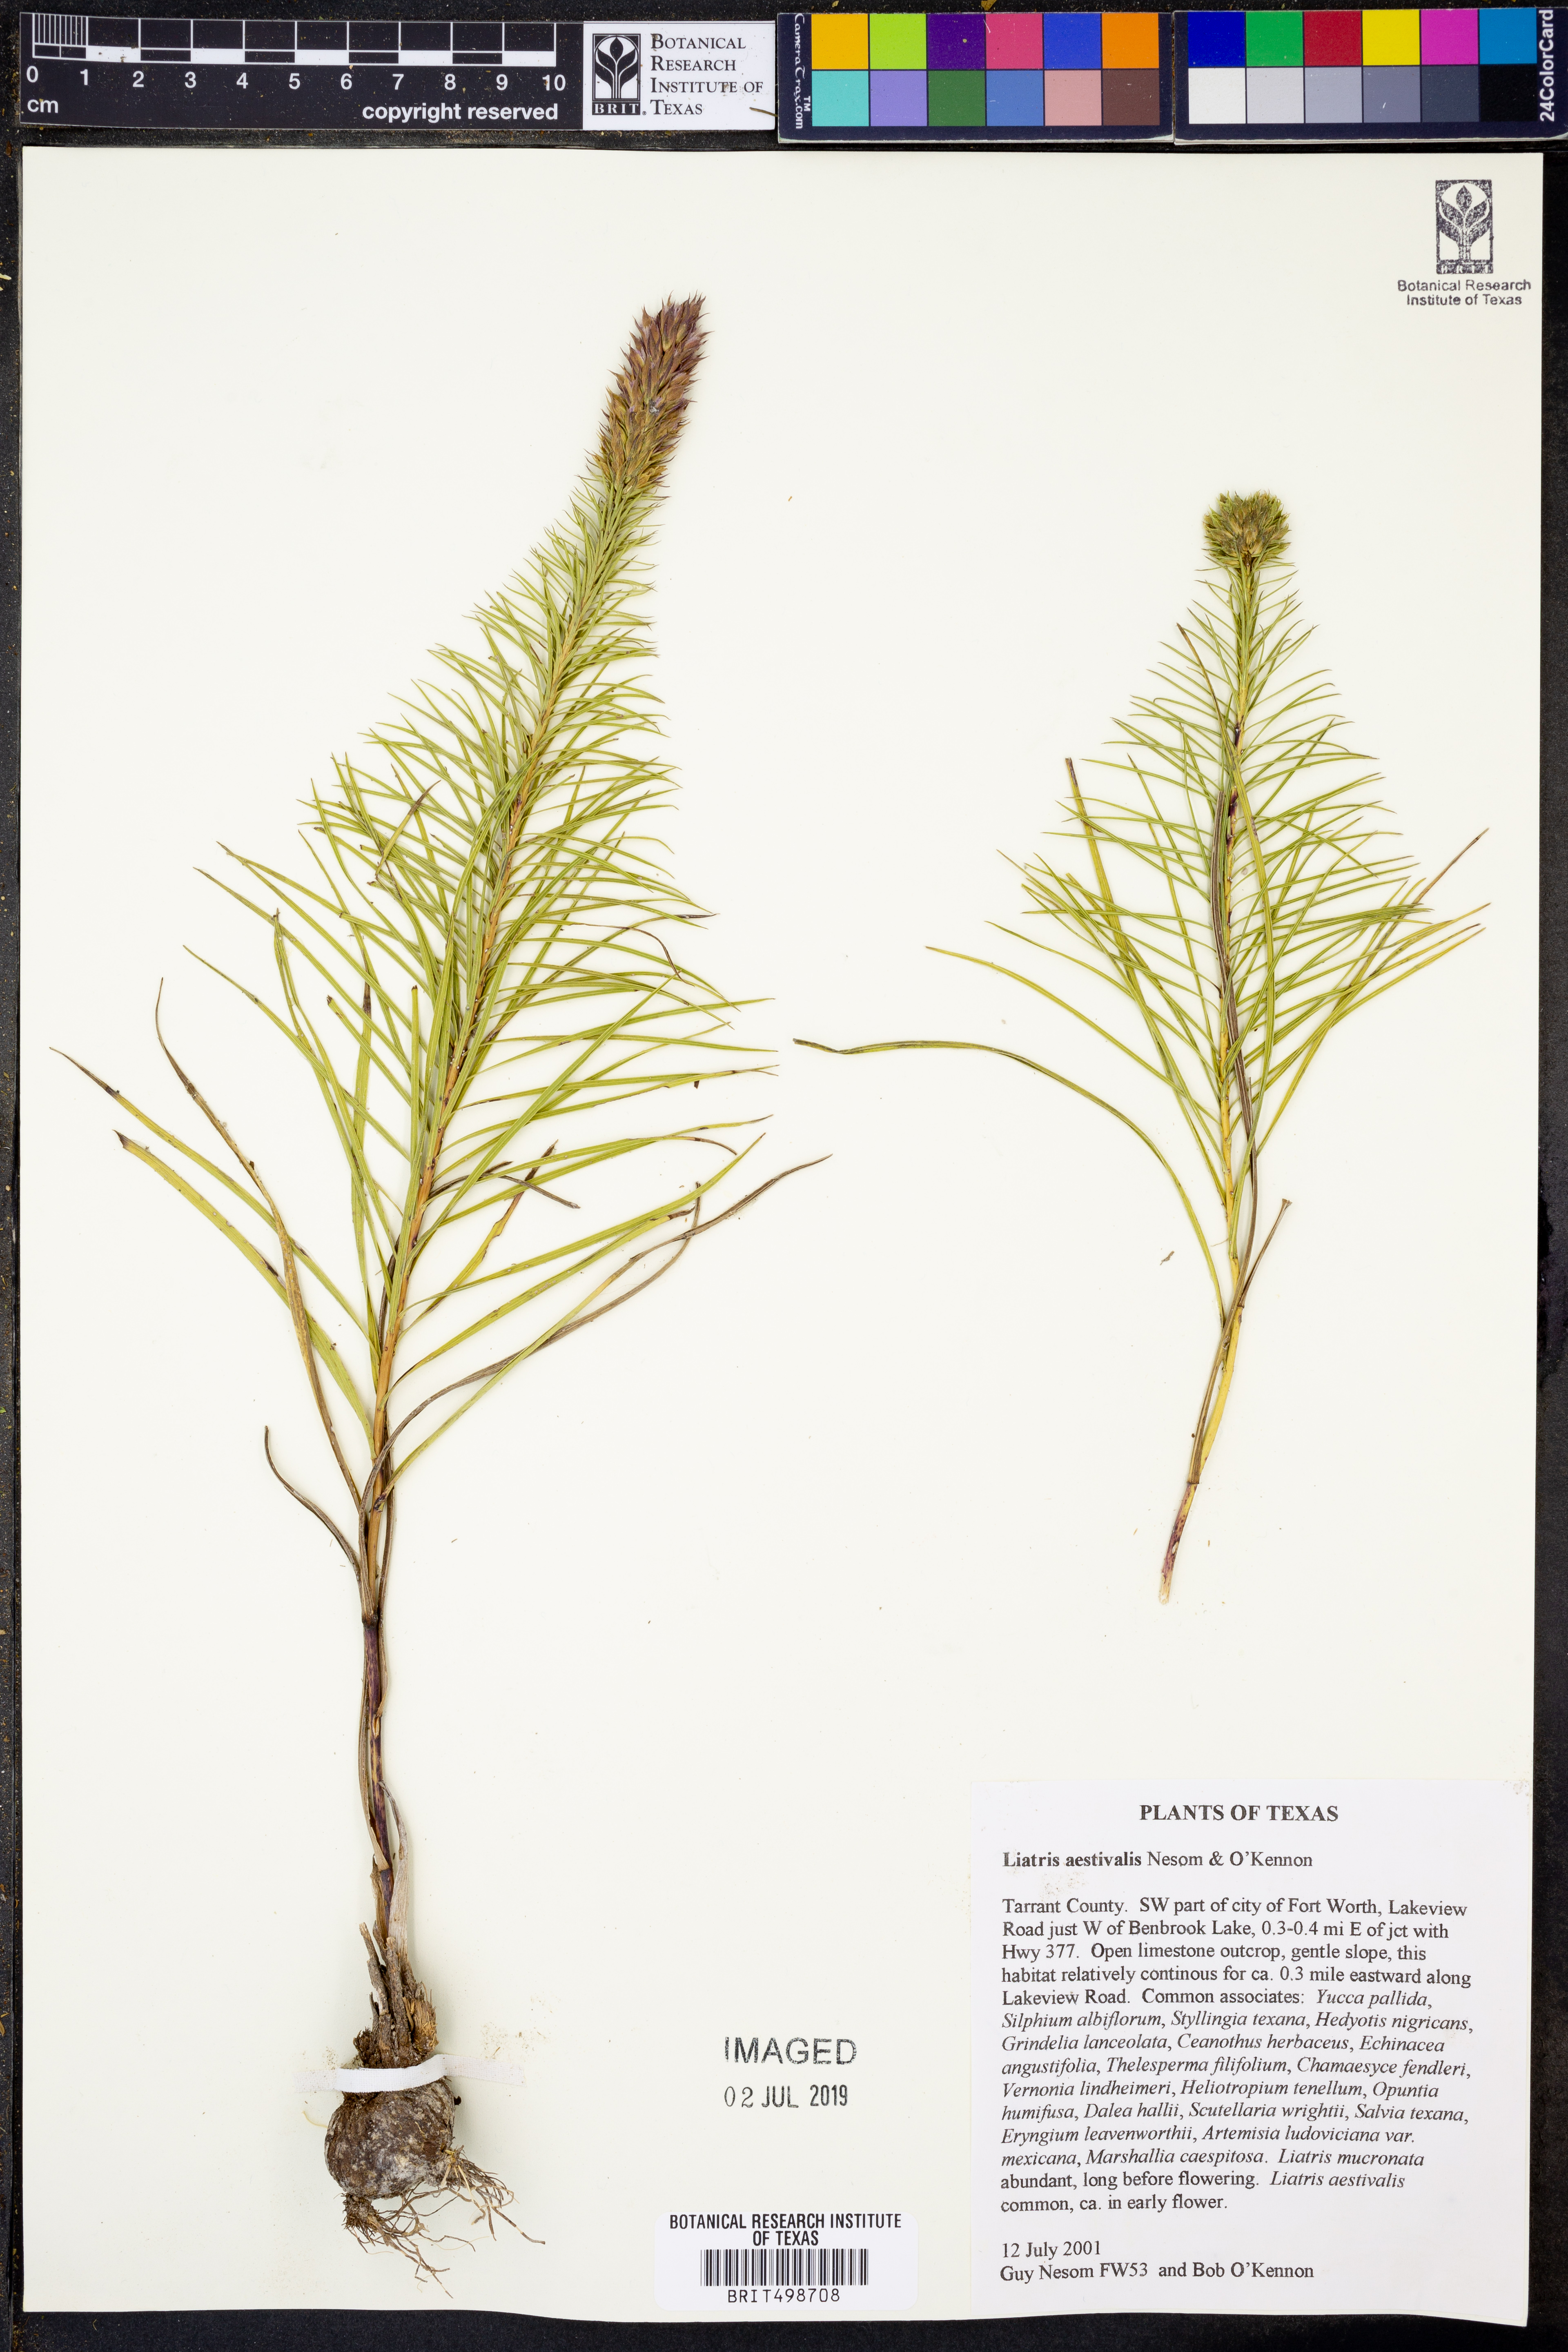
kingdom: Plantae
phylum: Tracheophyta
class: Magnoliopsida
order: Asterales
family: Asteraceae
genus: Liatris
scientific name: Liatris aestivalis
